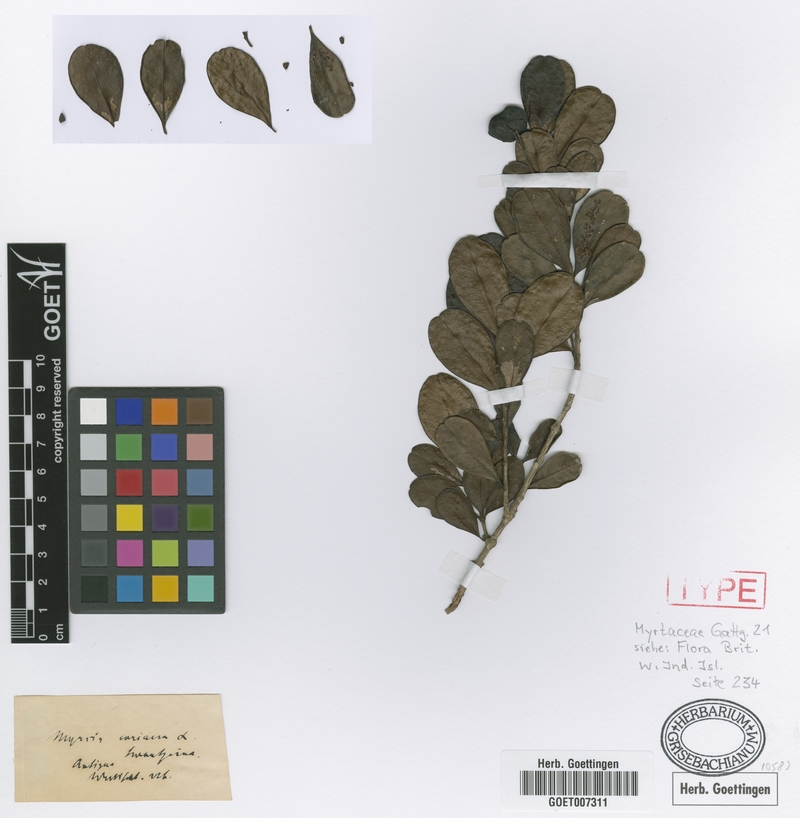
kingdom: Plantae
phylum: Tracheophyta
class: Magnoliopsida
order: Myrtales
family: Myrtaceae
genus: Myrcia
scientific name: Myrcia guianensis
